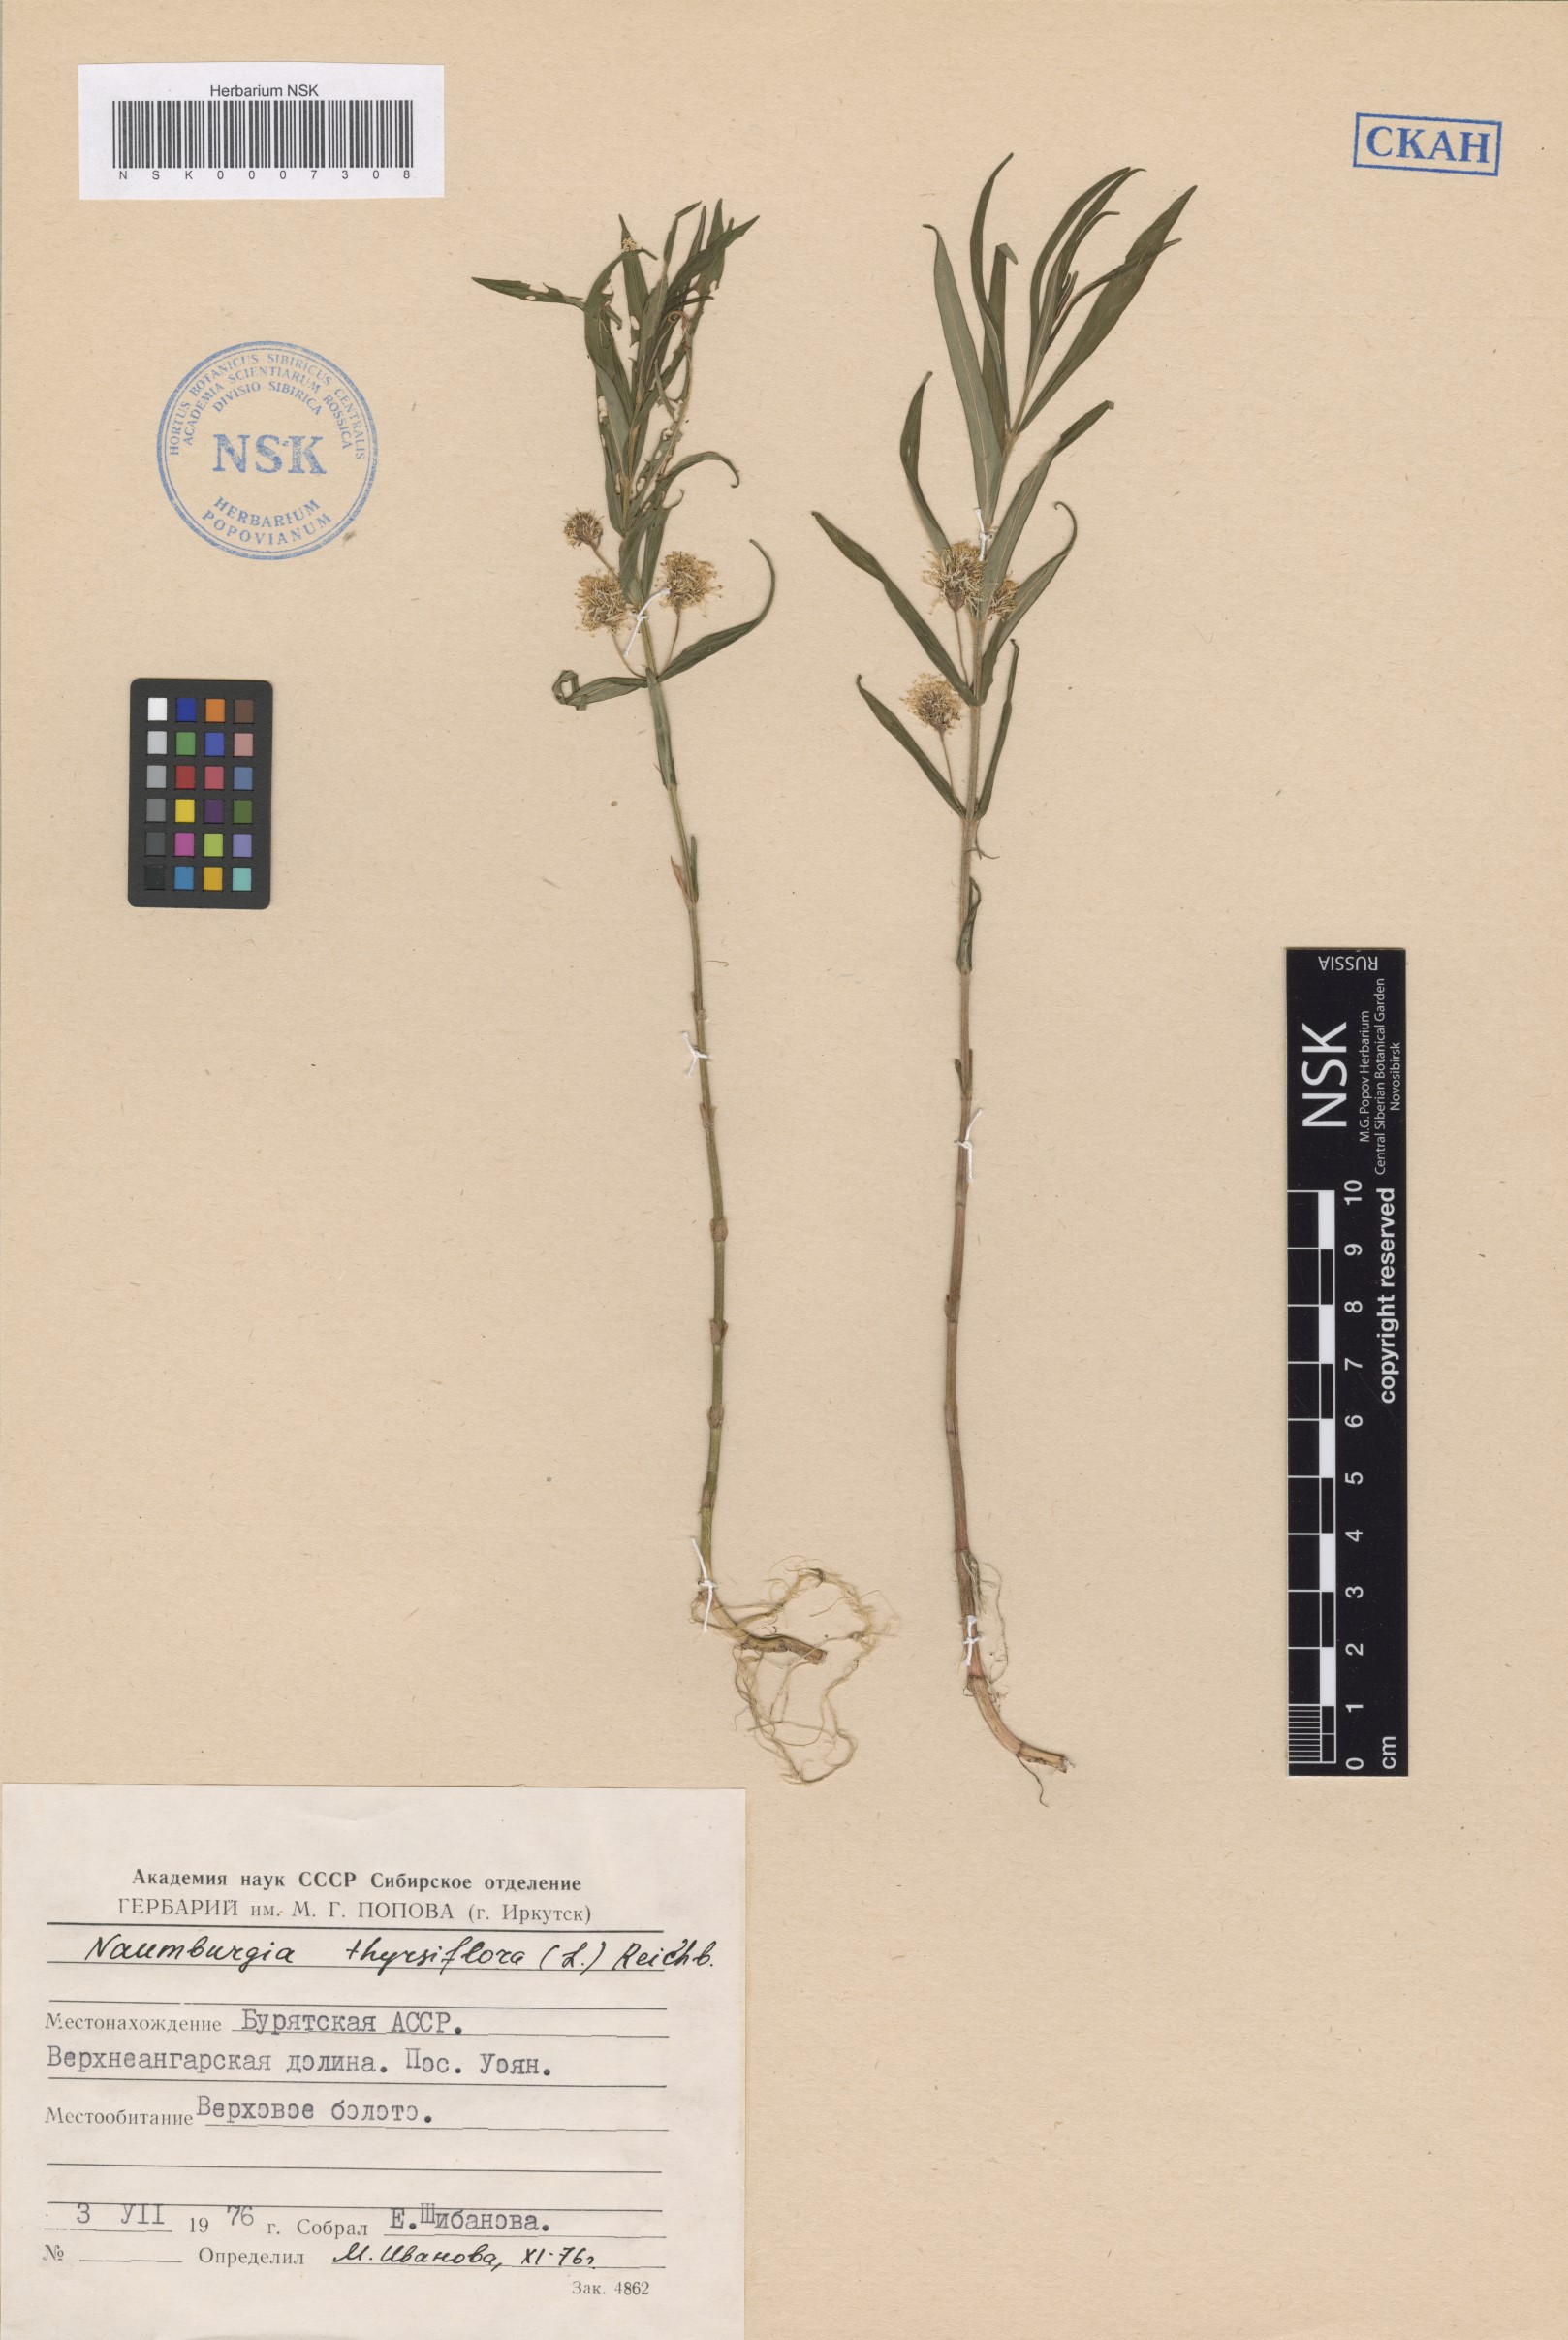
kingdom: Plantae
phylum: Tracheophyta
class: Magnoliopsida
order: Ericales
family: Primulaceae
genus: Lysimachia
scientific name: Lysimachia thyrsiflora
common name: Tufted loosestrife
